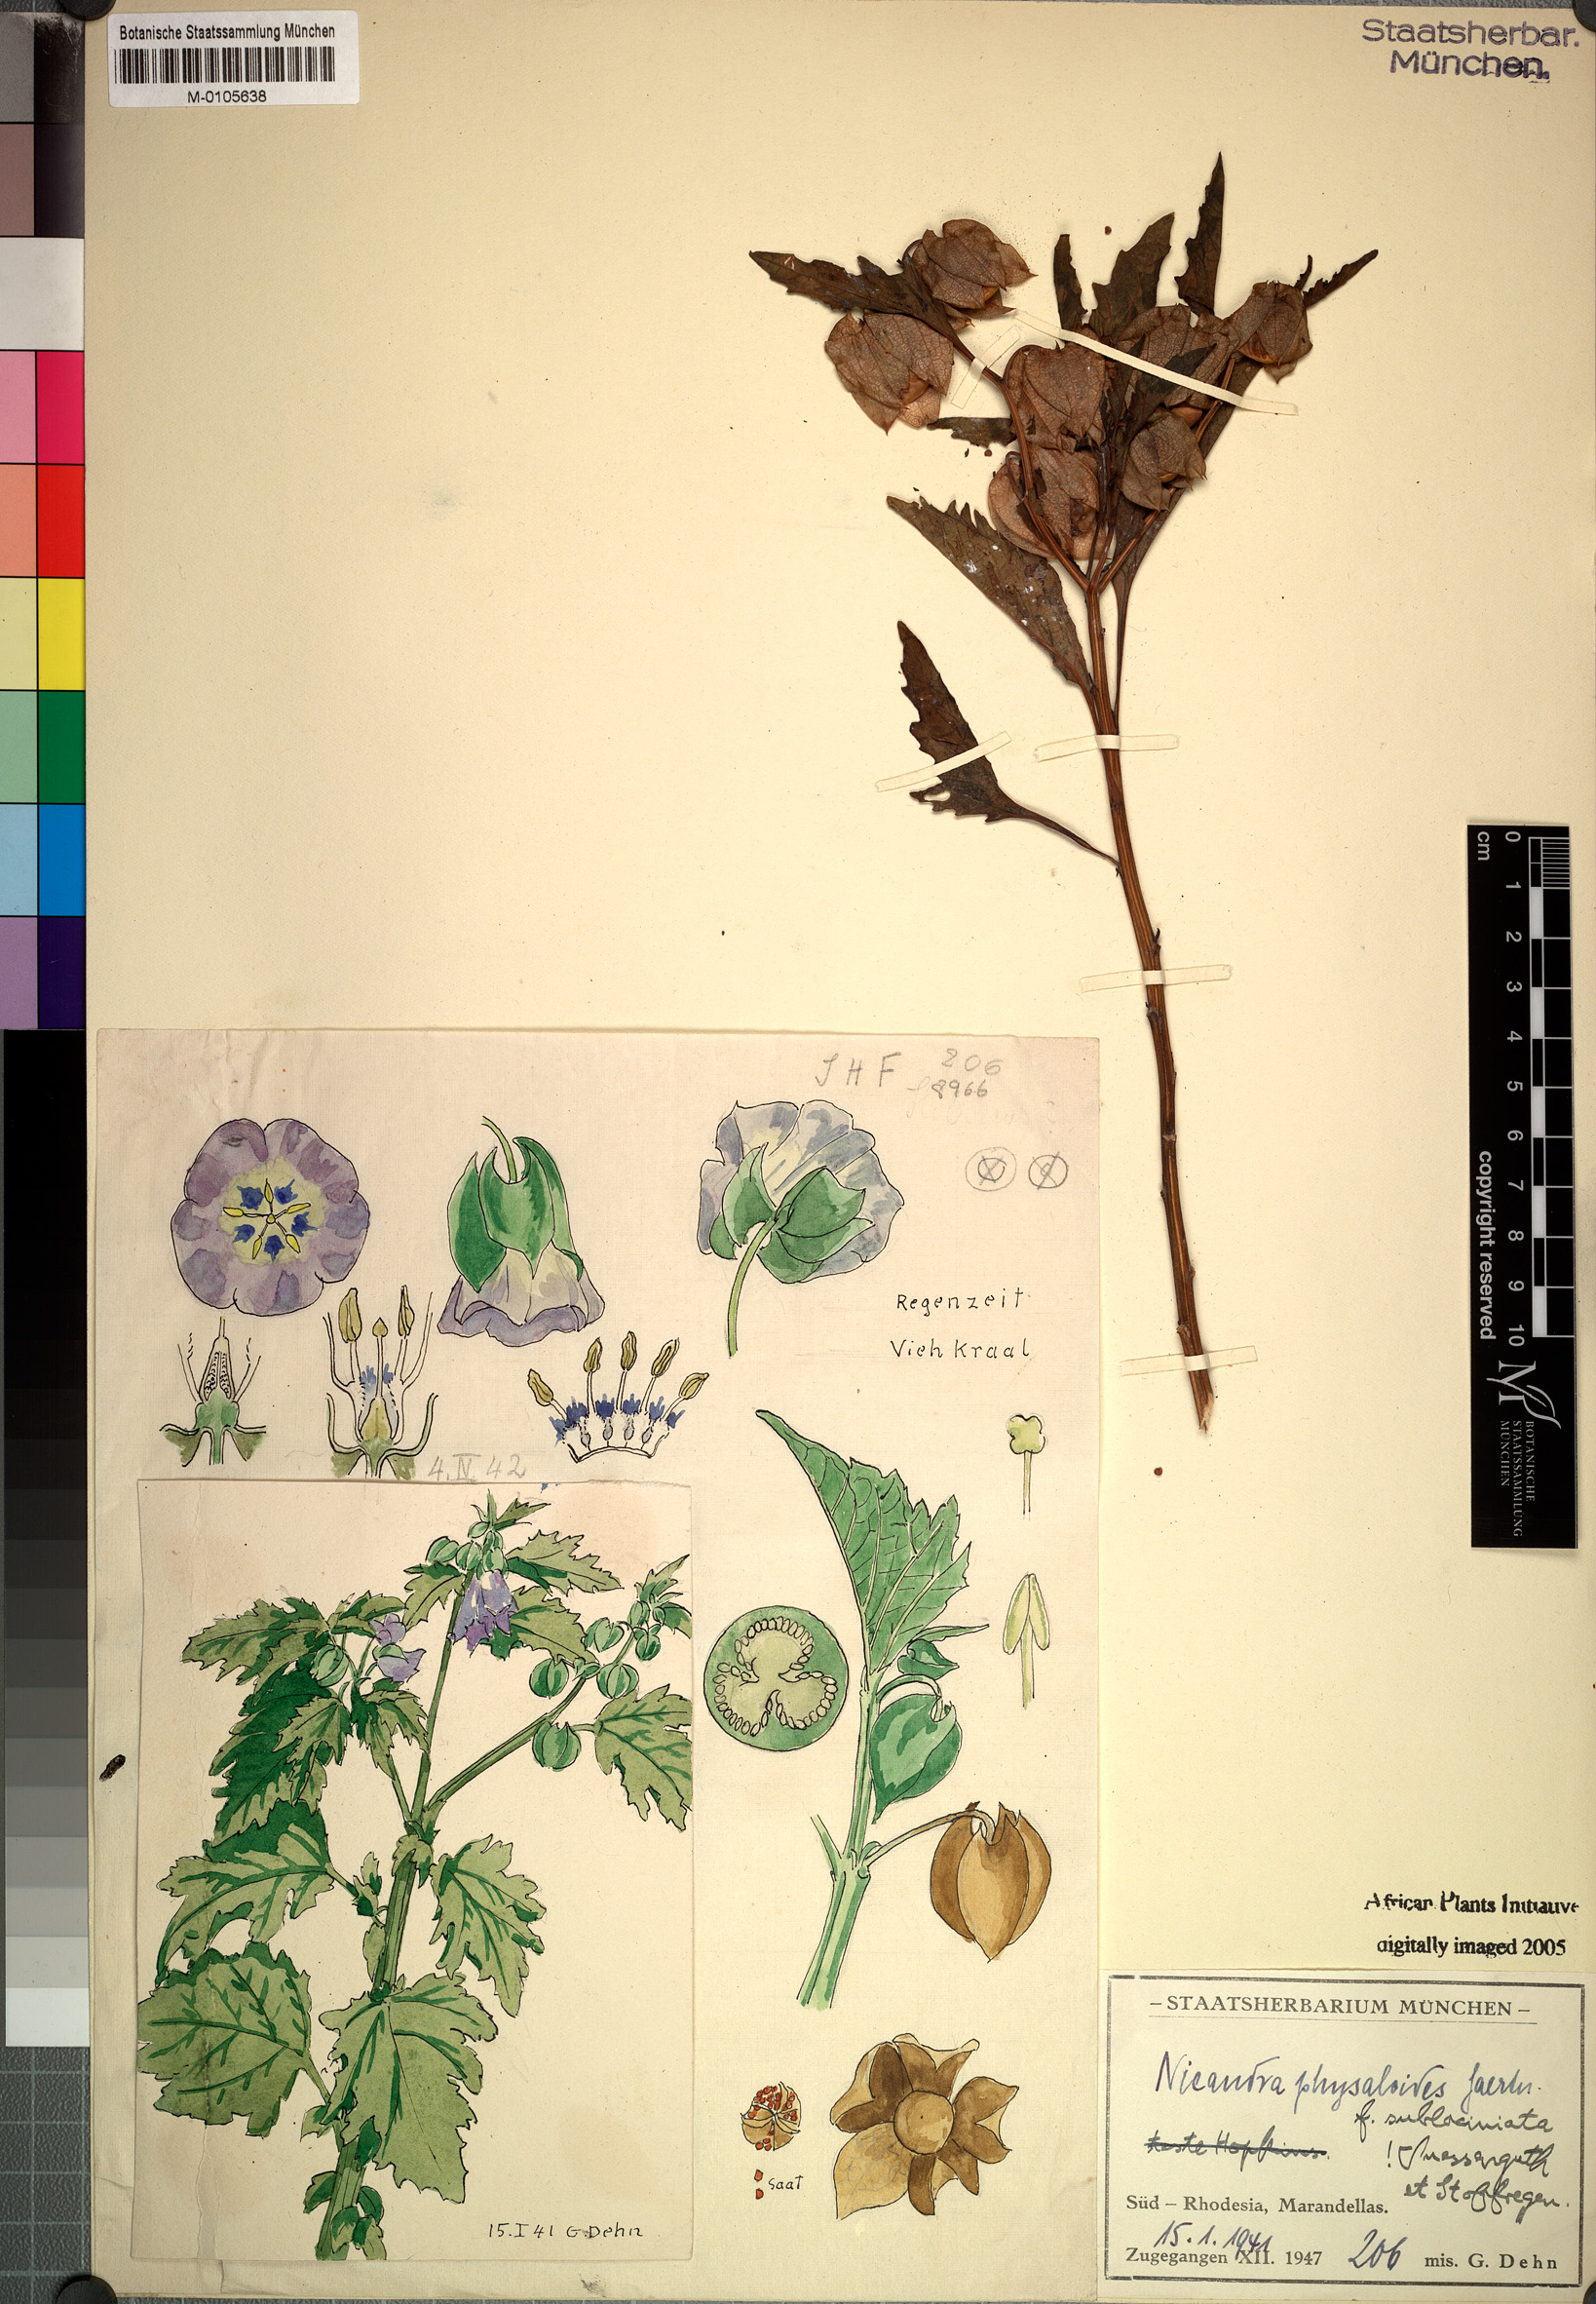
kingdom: Plantae
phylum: Tracheophyta
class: Magnoliopsida
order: Solanales
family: Solanaceae
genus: Nicandra
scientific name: Nicandra physalodes
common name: Apple-of-peru
